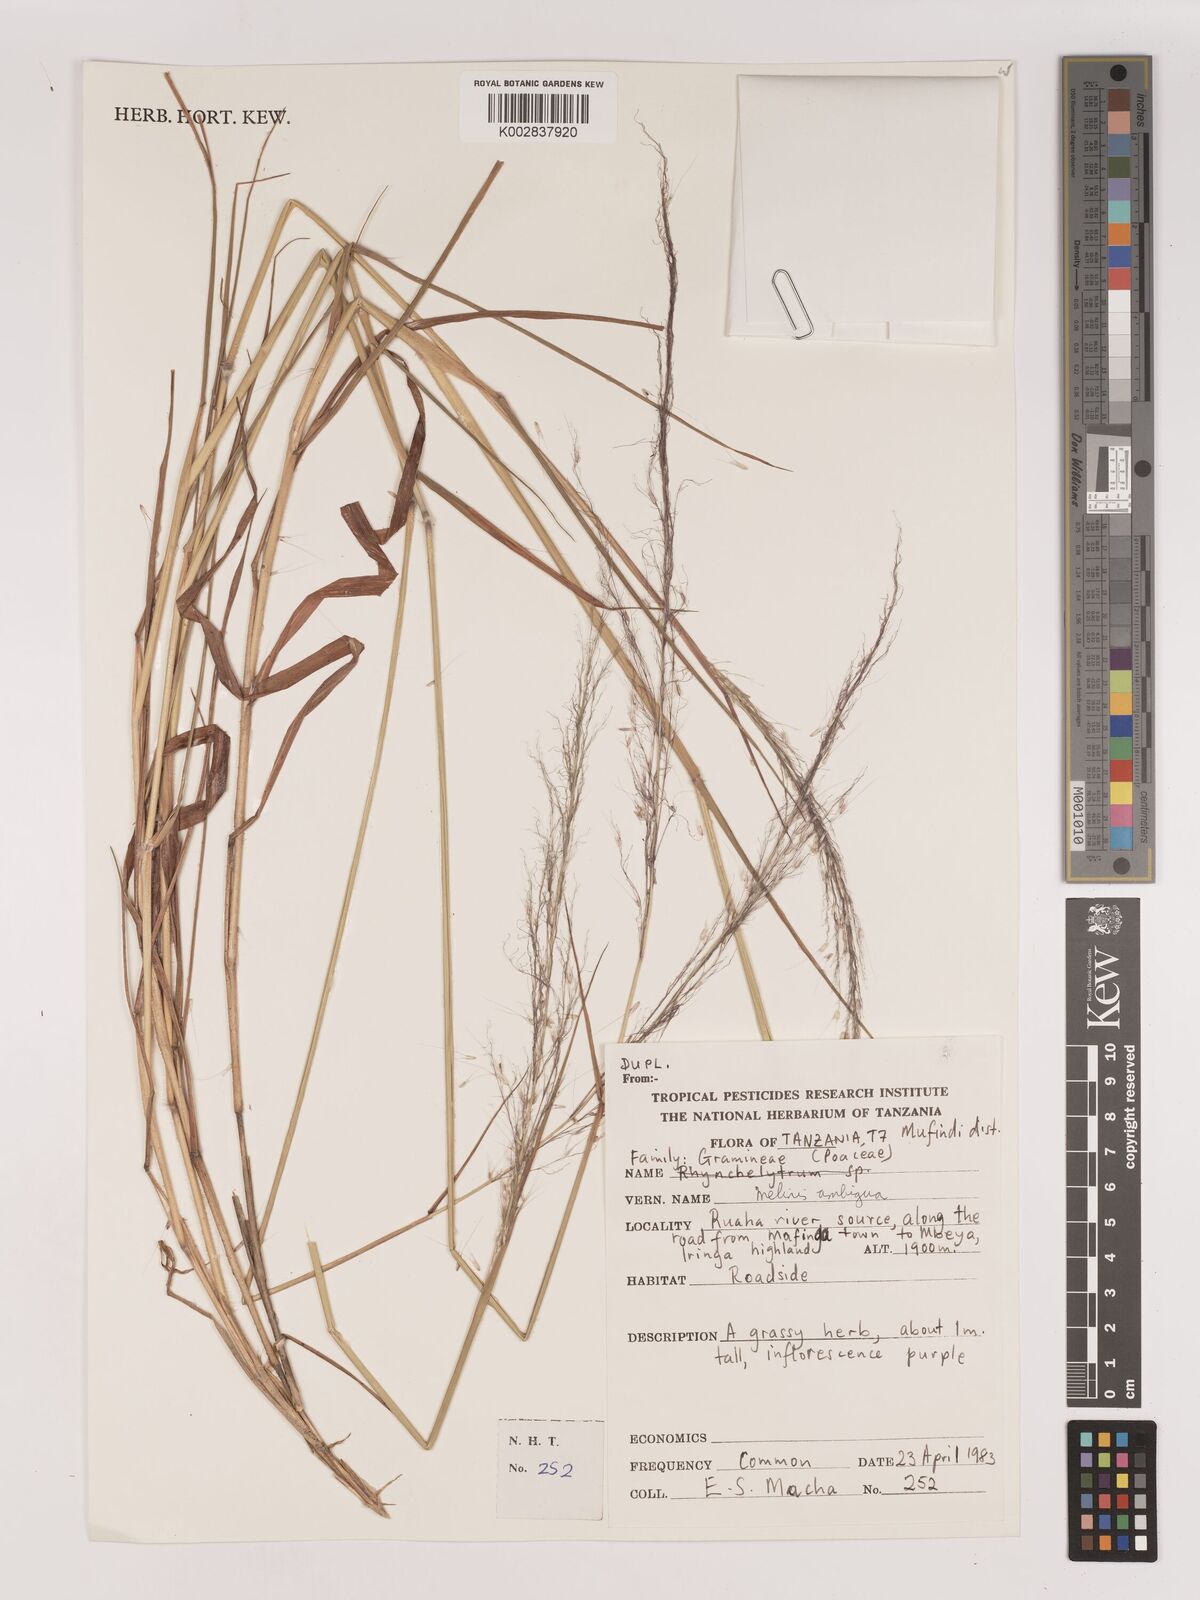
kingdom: Plantae
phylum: Tracheophyta
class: Liliopsida
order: Poales
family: Poaceae
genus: Melinis
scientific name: Melinis ambigua
